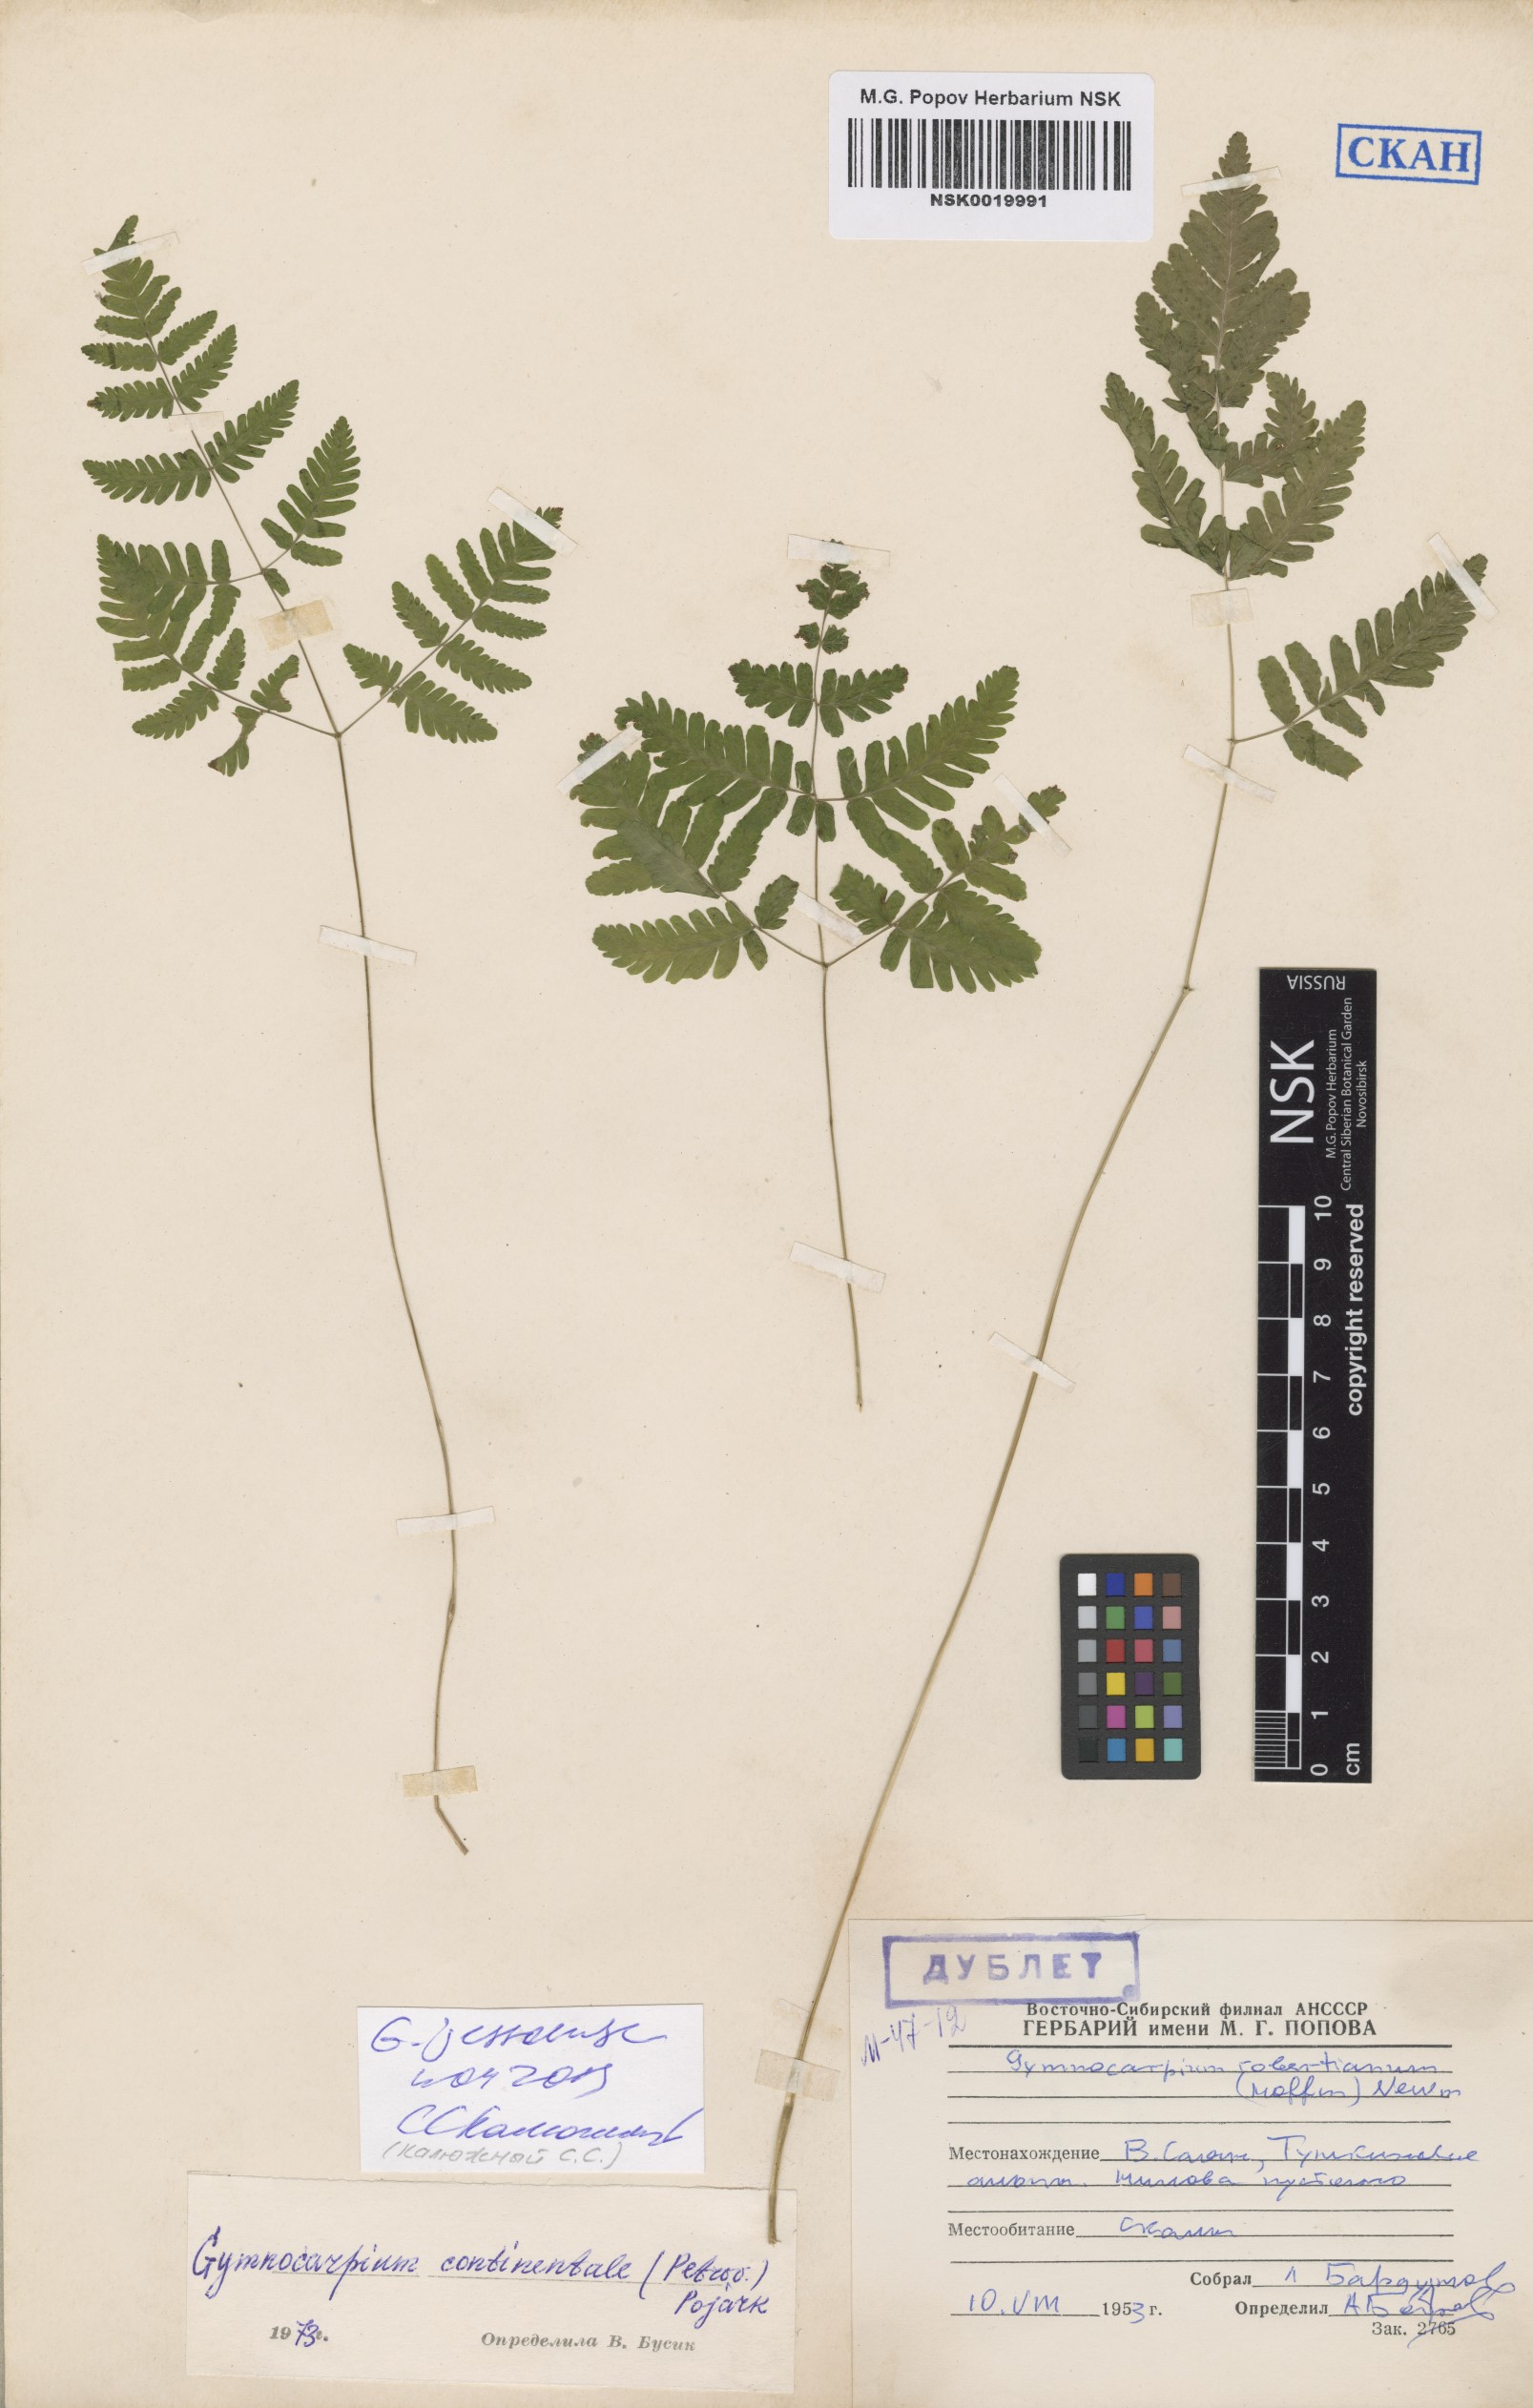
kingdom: Plantae
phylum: Tracheophyta
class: Polypodiopsida
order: Polypodiales
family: Cystopteridaceae
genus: Gymnocarpium
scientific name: Gymnocarpium jessoense
